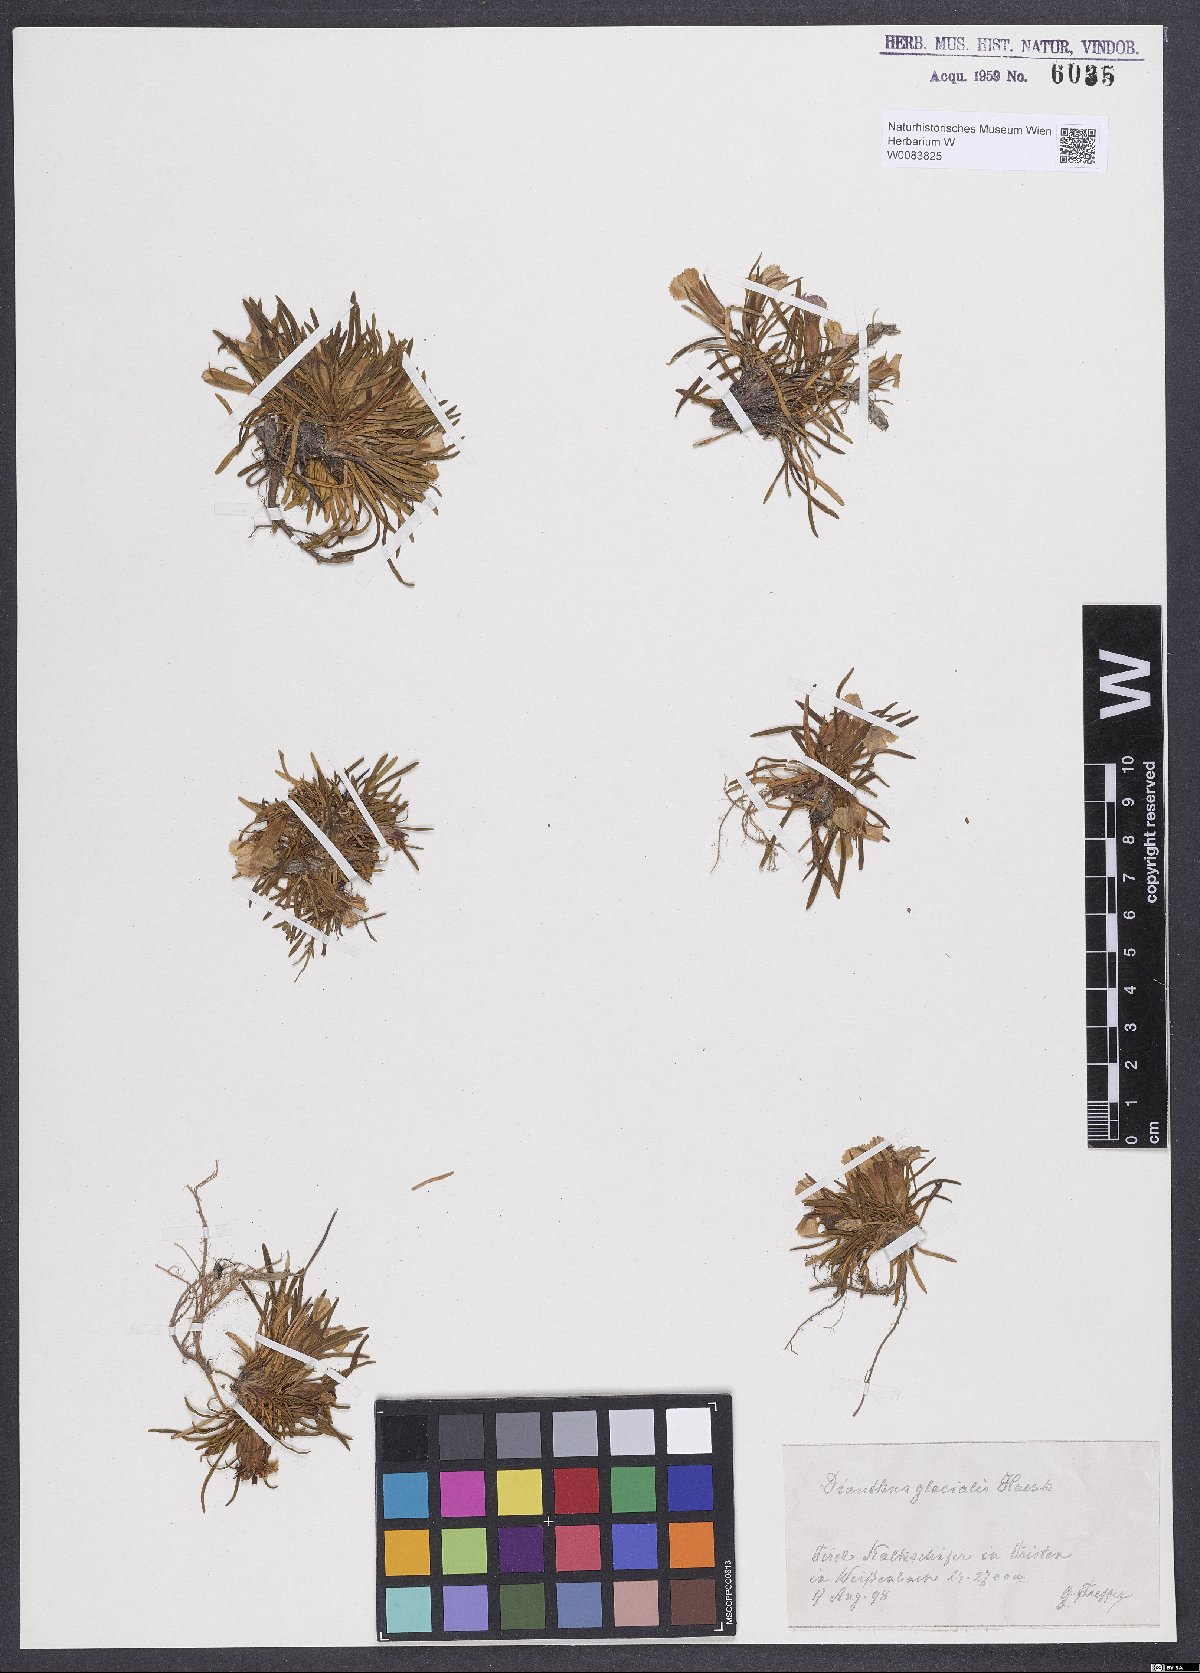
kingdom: Plantae
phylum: Tracheophyta
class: Magnoliopsida
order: Caryophyllales
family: Caryophyllaceae
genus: Dianthus
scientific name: Dianthus glacialis
